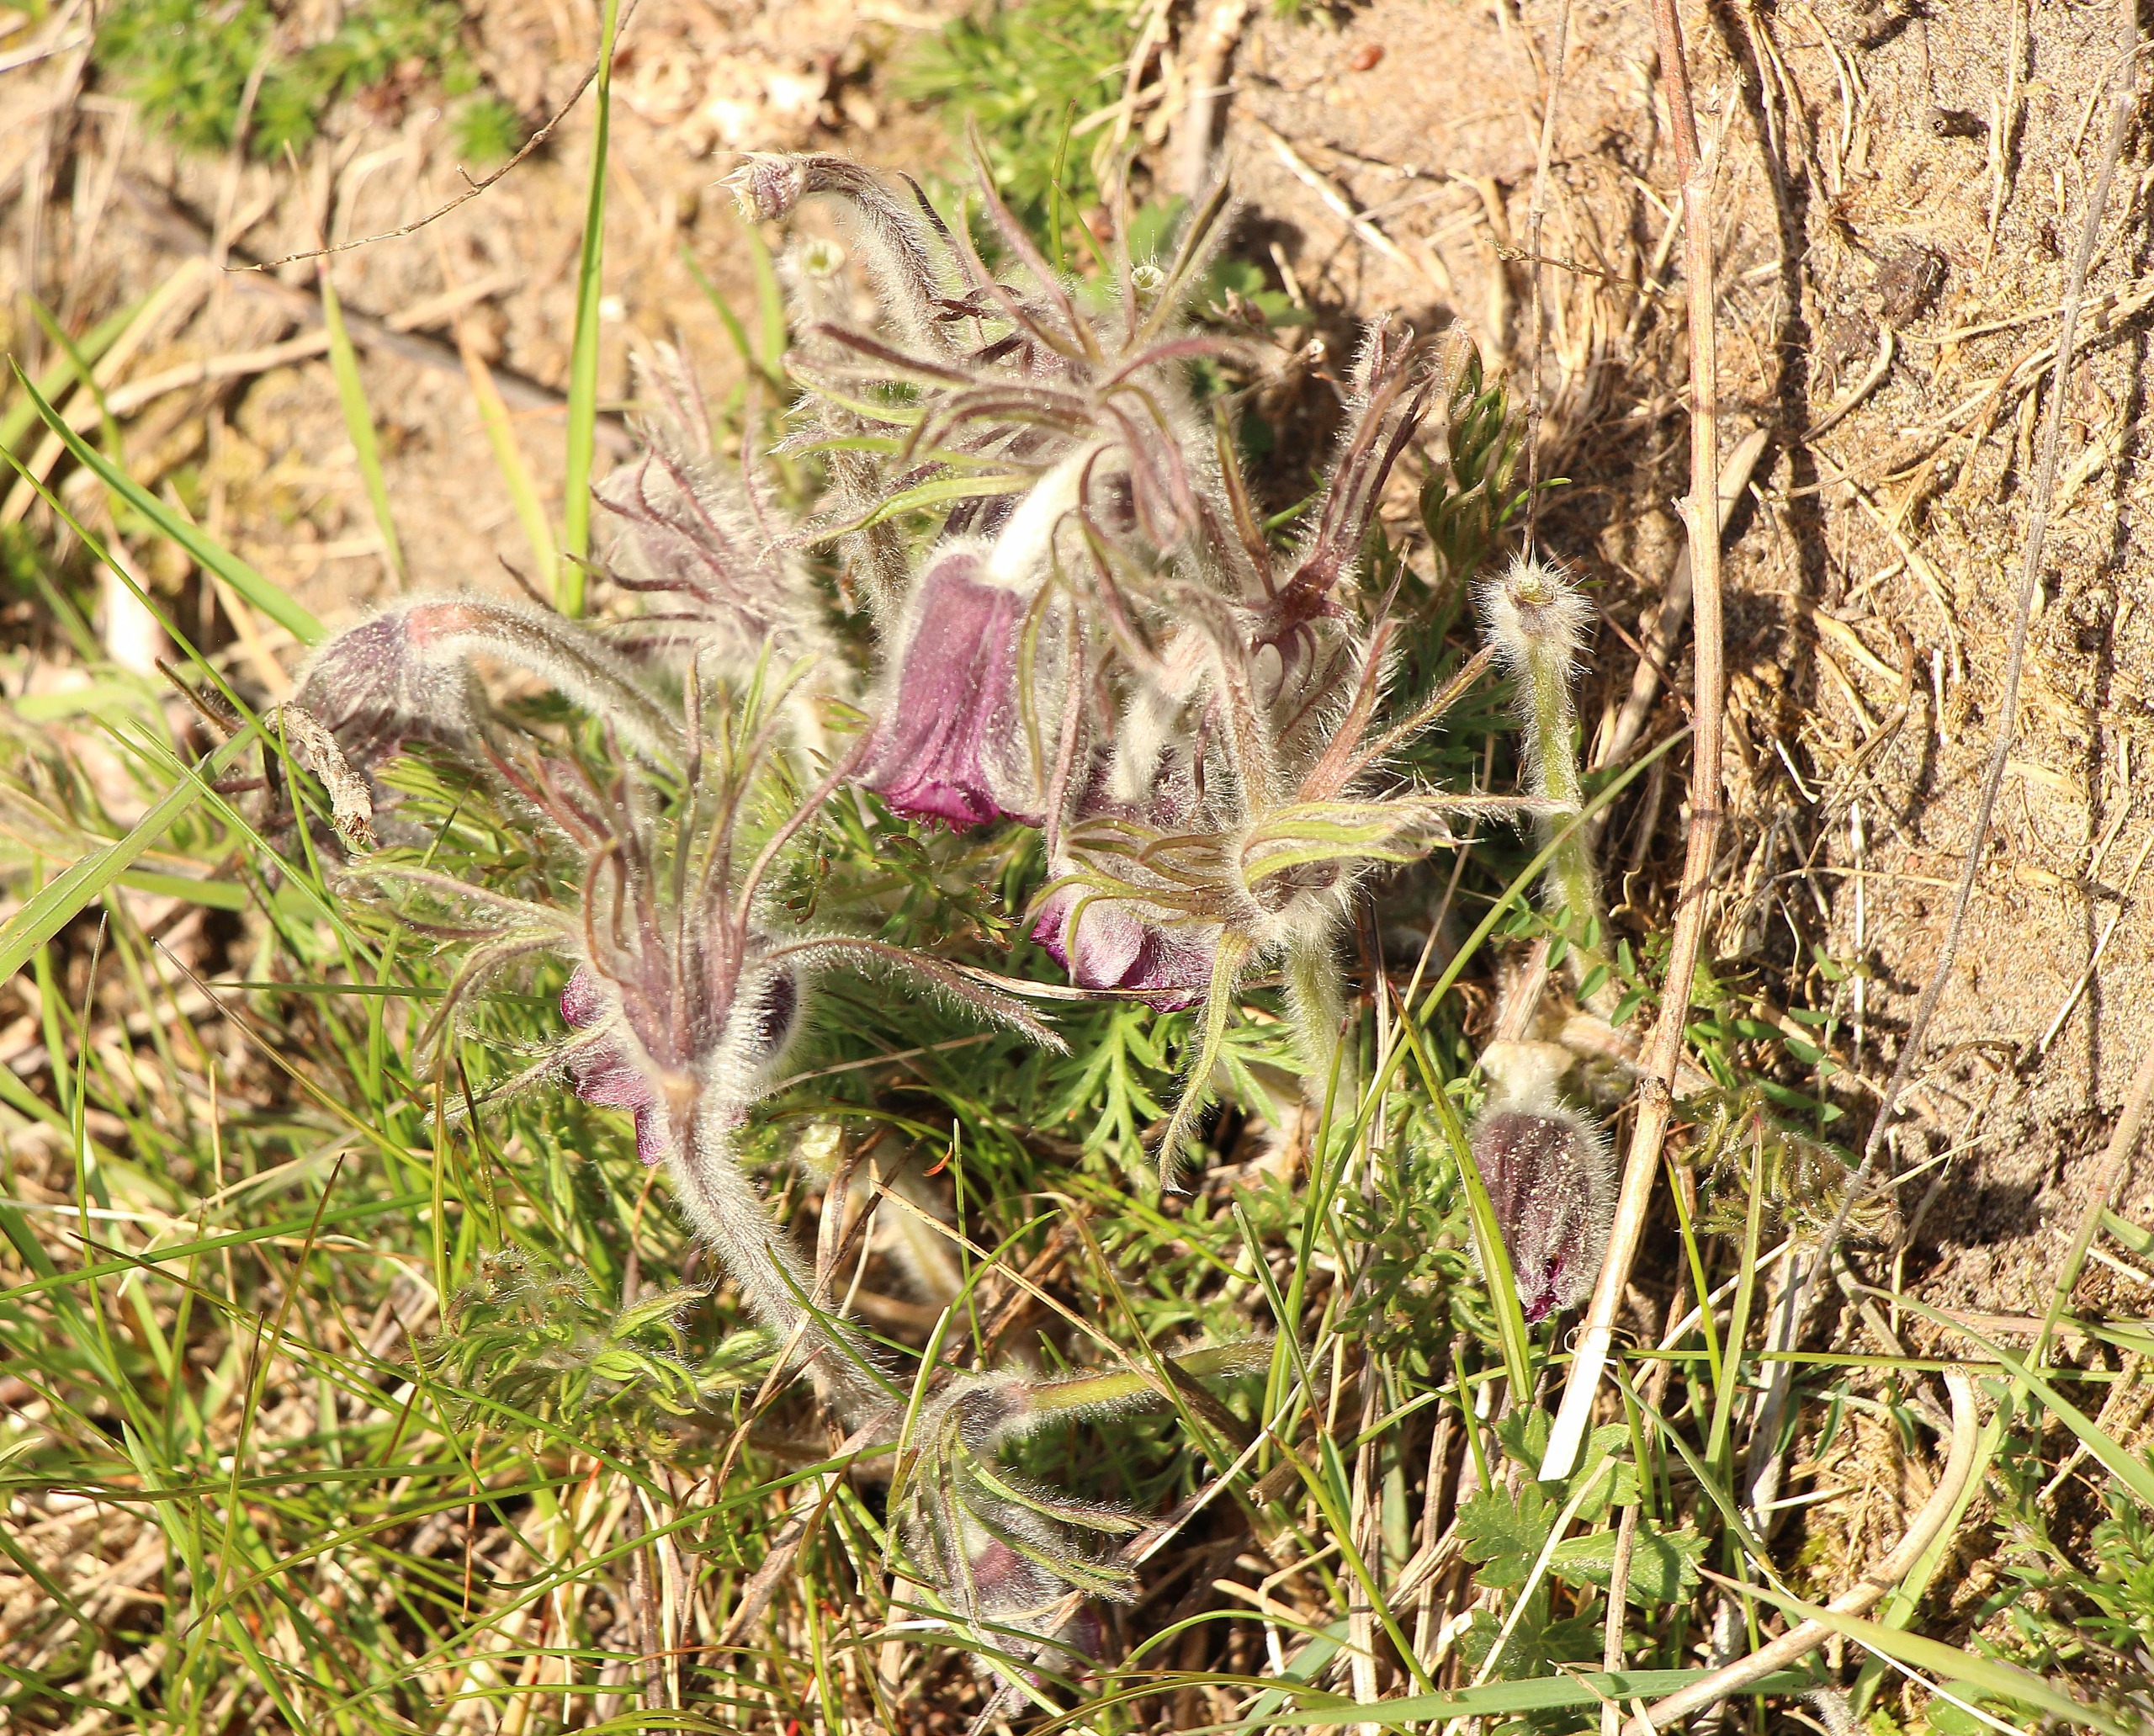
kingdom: Plantae
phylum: Tracheophyta
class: Magnoliopsida
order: Ranunculales
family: Ranunculaceae
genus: Pulsatilla
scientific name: Pulsatilla pratensis
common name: Nikkende kobjælde
